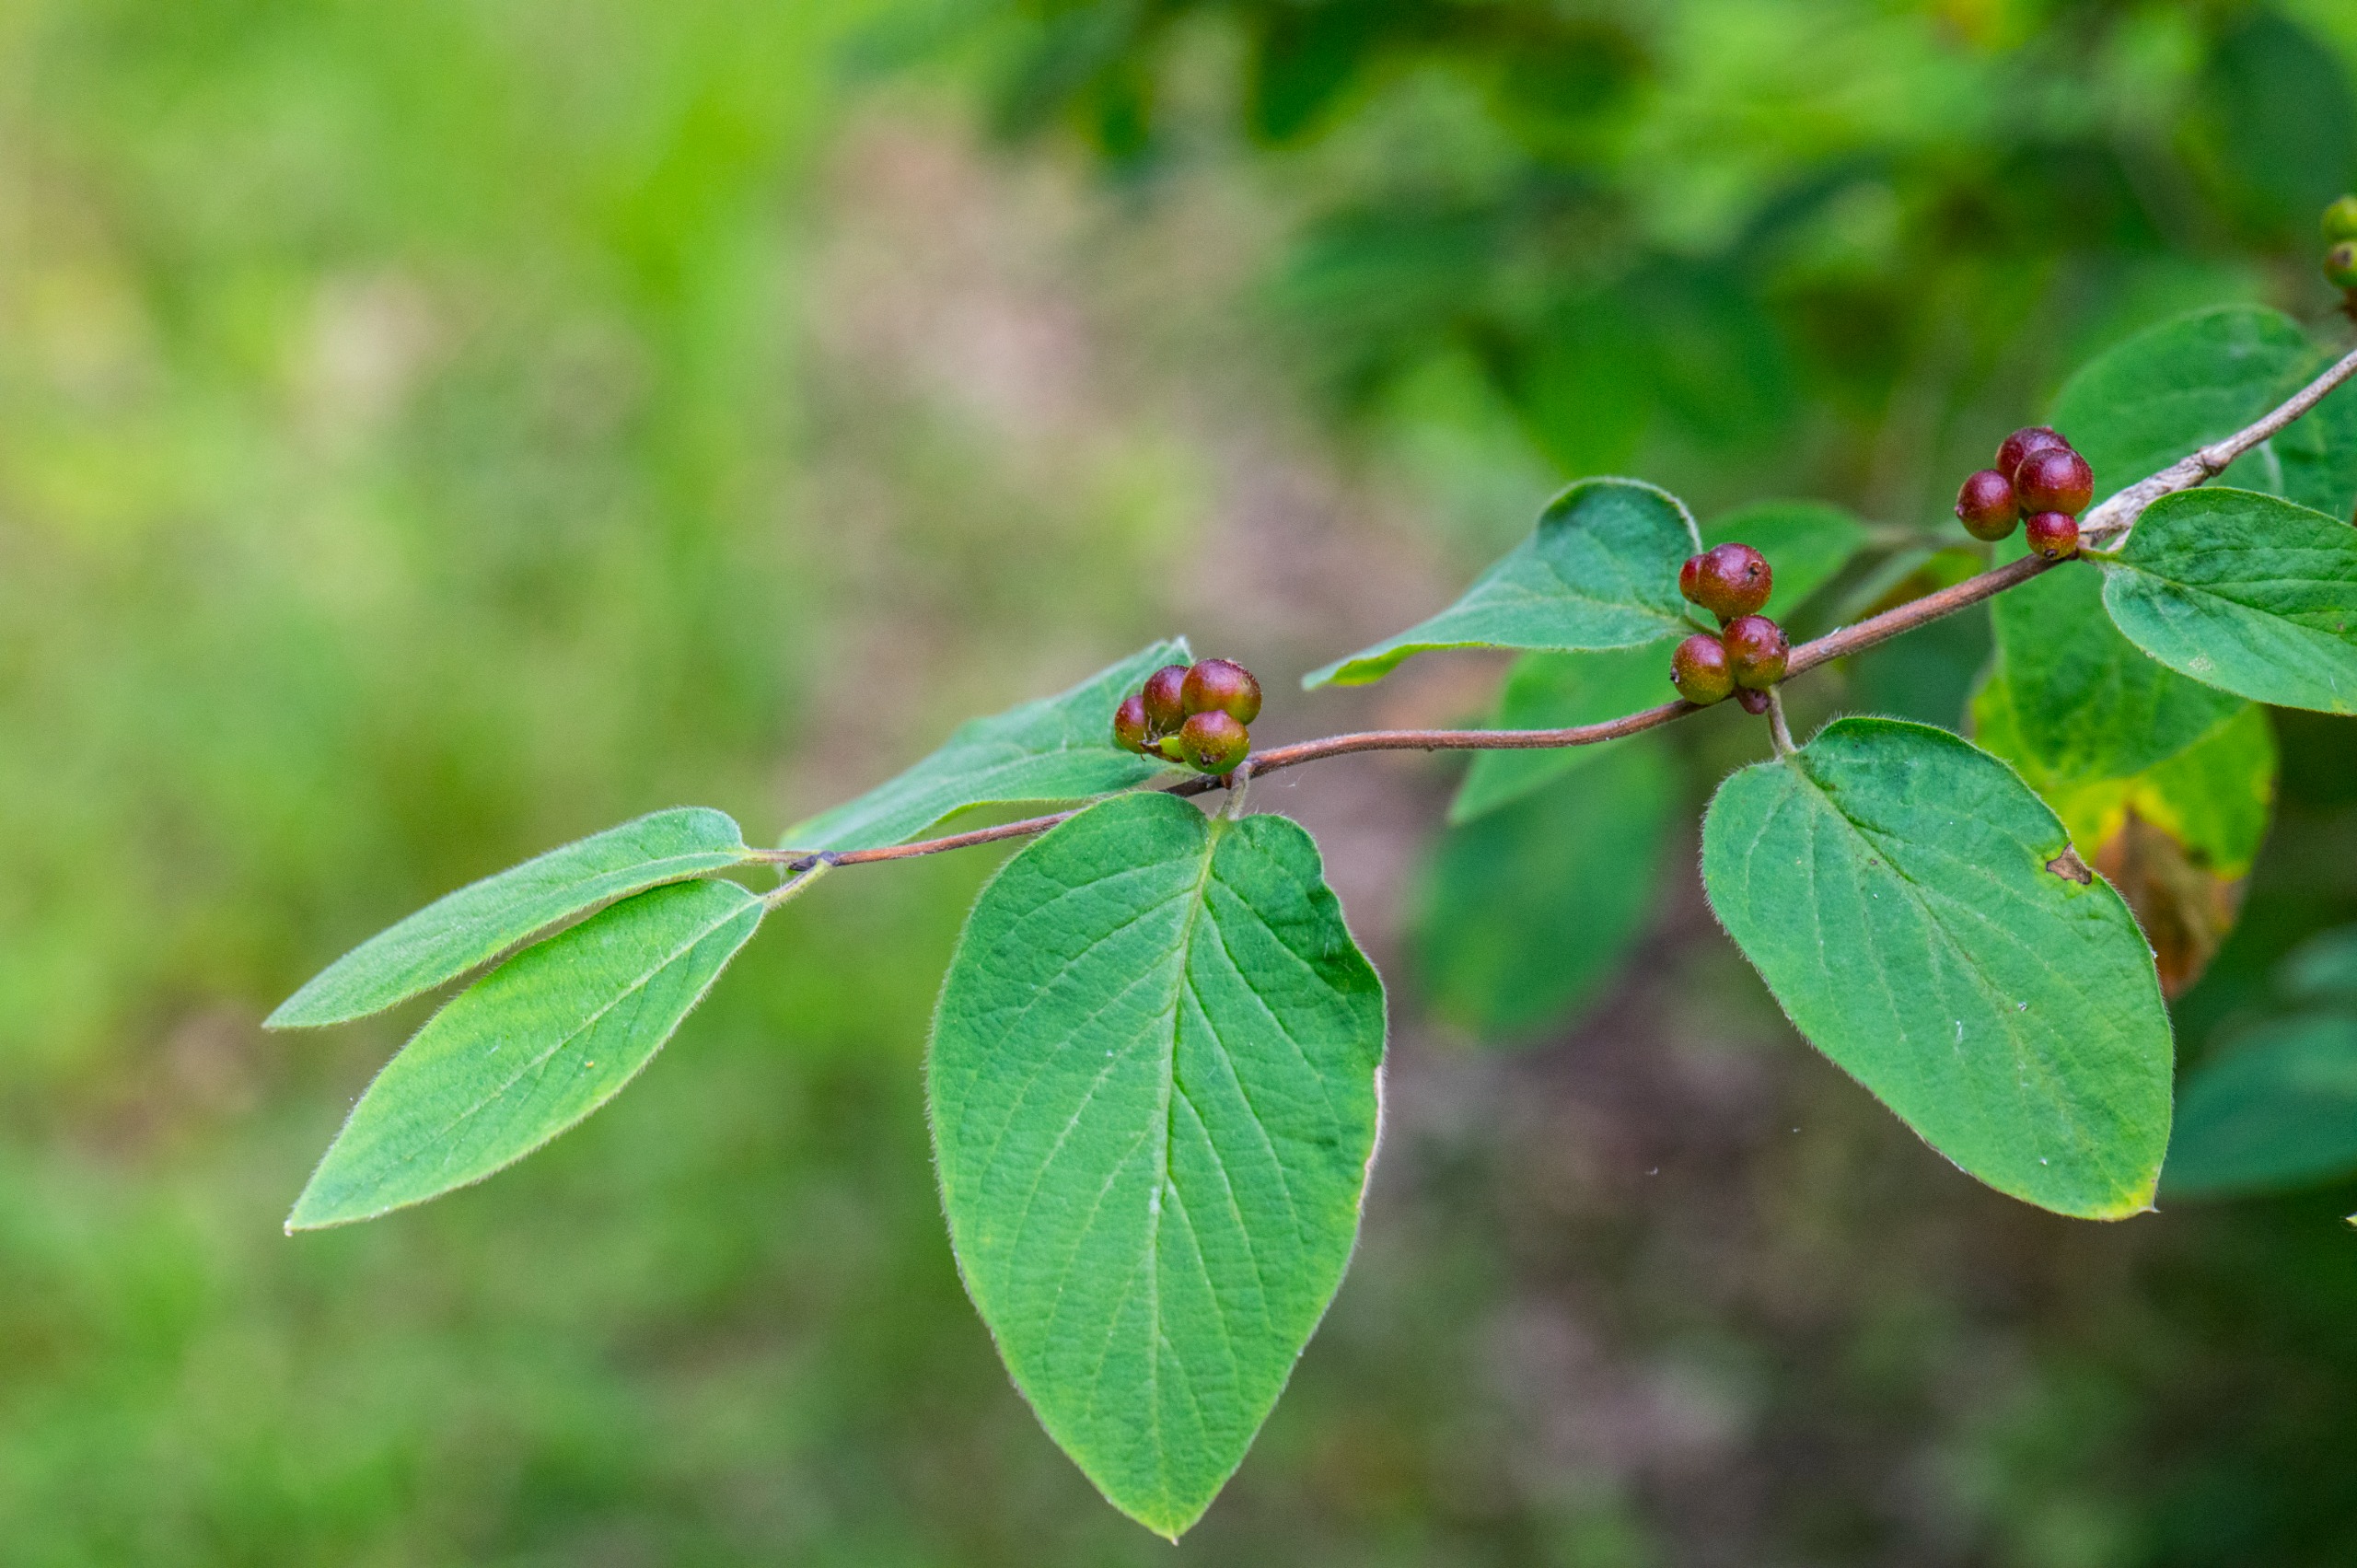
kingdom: Plantae
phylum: Tracheophyta
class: Magnoliopsida
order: Dipsacales
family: Caprifoliaceae
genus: Lonicera
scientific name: Lonicera xylosteum
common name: Dunet gedeblad
